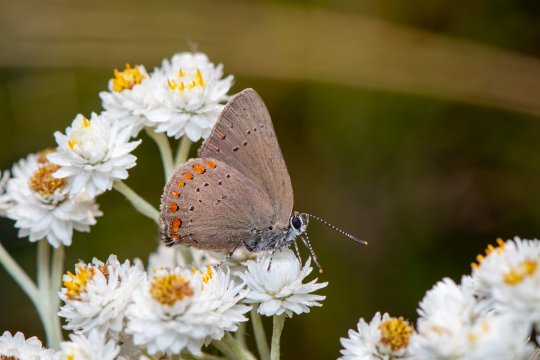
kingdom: Animalia
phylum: Arthropoda
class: Insecta
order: Lepidoptera
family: Lycaenidae
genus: Harkenclenus
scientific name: Harkenclenus titus
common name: Coral Hairstreak
